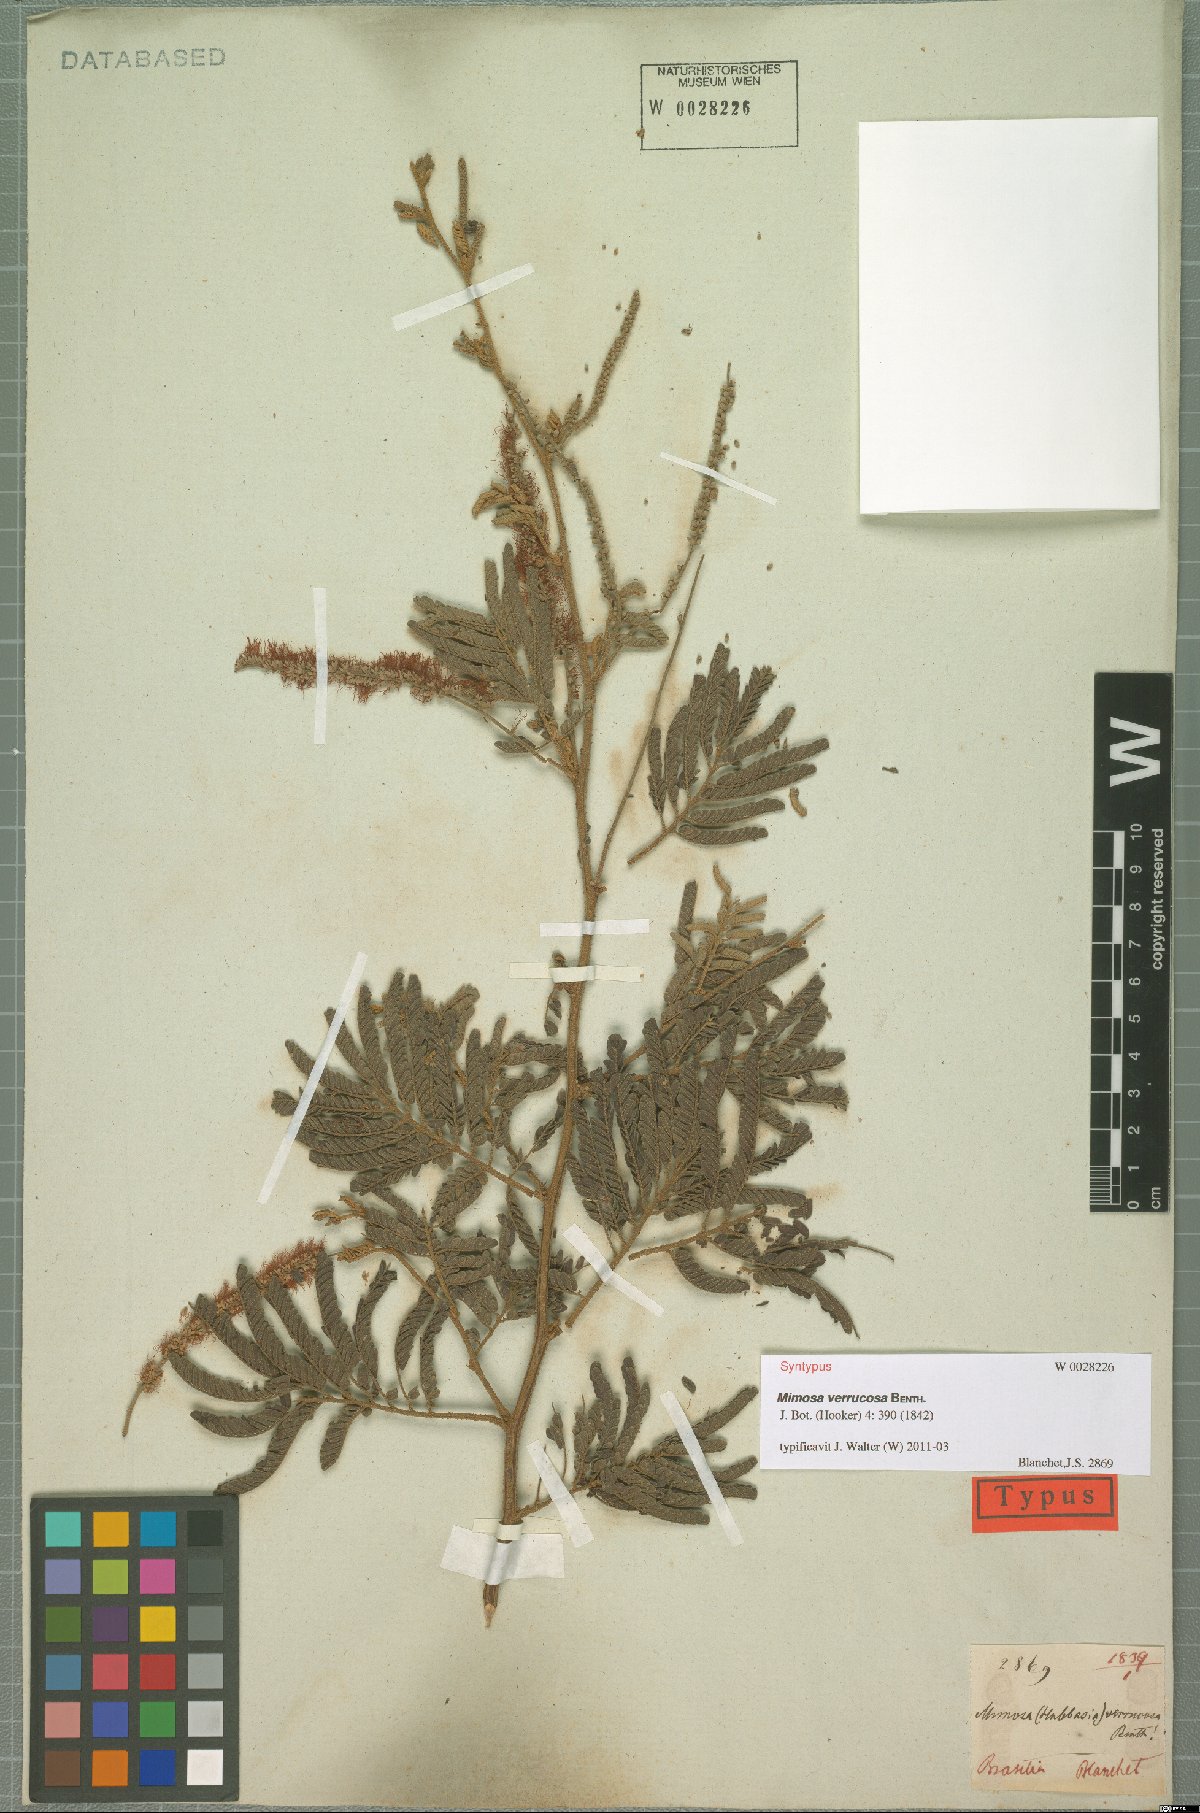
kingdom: Plantae
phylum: Tracheophyta
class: Magnoliopsida
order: Fabales
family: Fabaceae
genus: Mimosa
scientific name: Mimosa verrucosa
